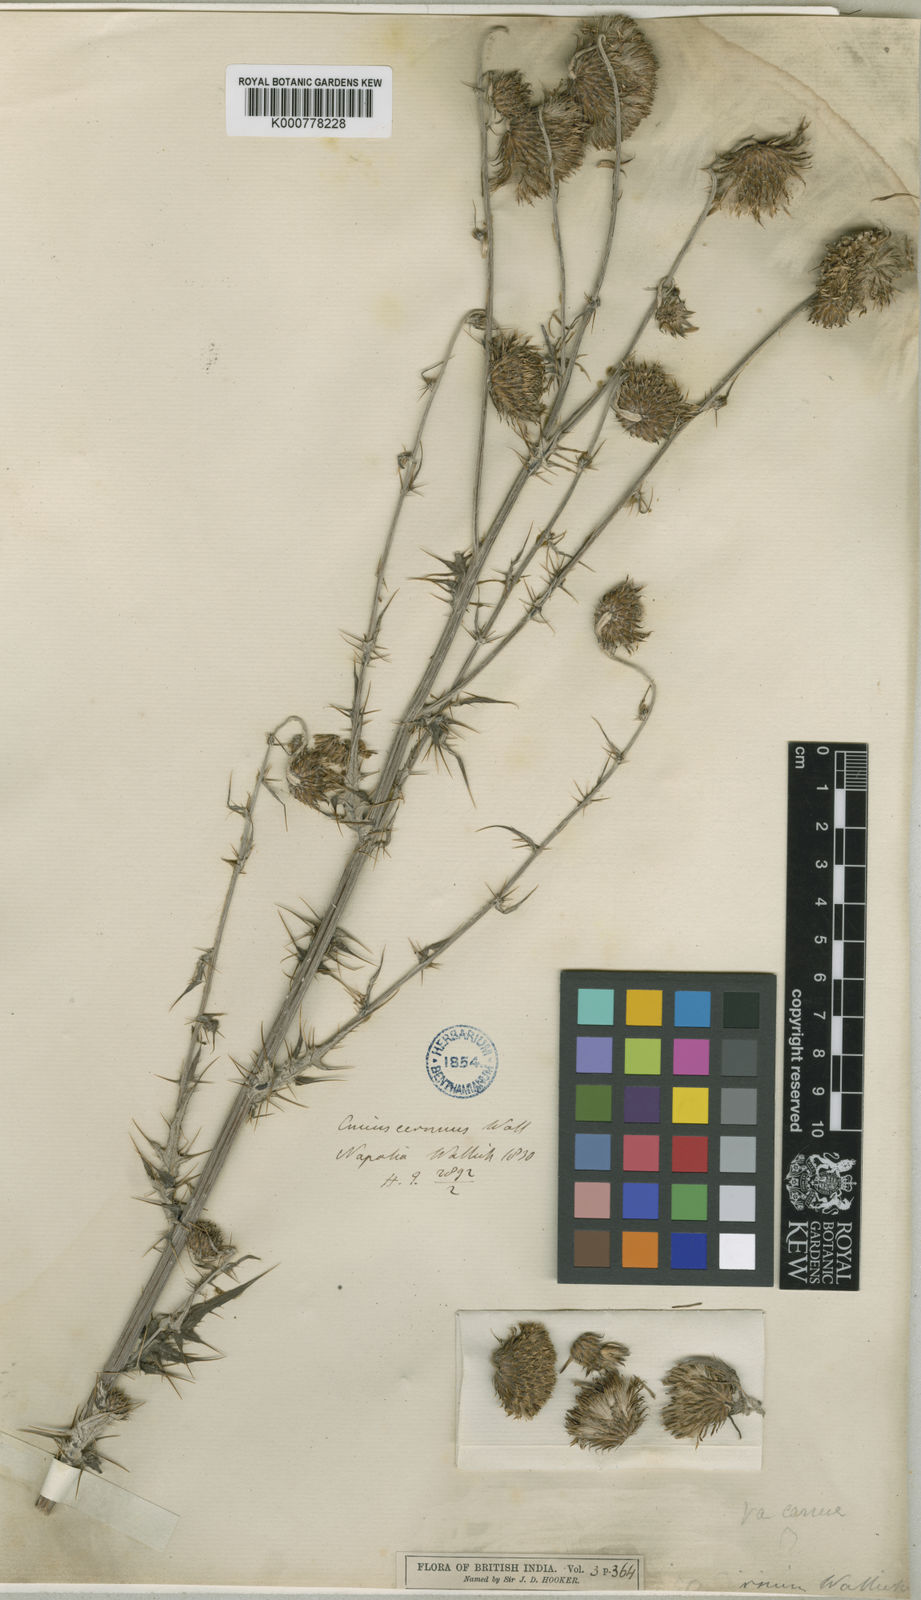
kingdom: Plantae
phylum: Tracheophyta
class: Magnoliopsida
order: Asterales
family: Asteraceae
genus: Cirsium
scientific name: Cirsium wallichii
